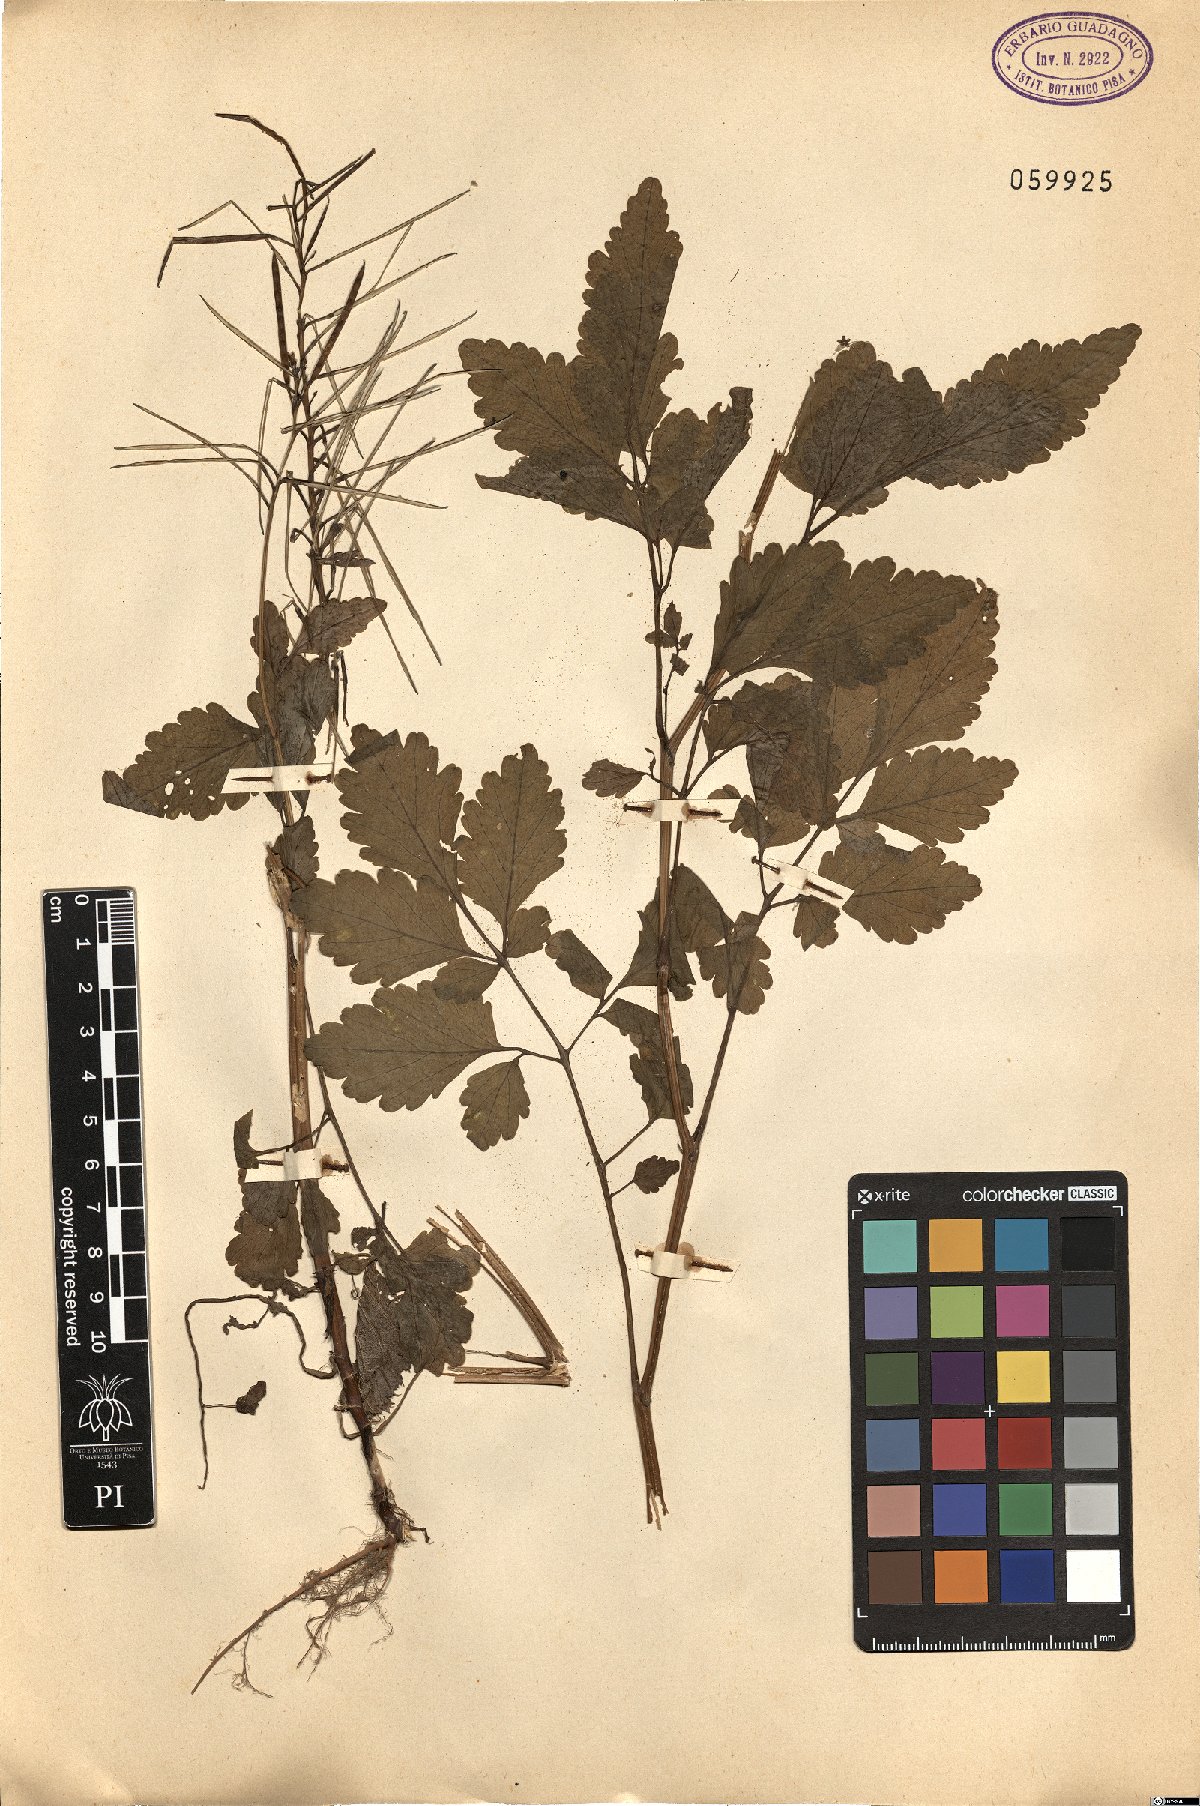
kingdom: Plantae
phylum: Tracheophyta
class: Magnoliopsida
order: Ranunculales
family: Papaveraceae
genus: Chelidonium
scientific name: Chelidonium majus
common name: Greater celandine
